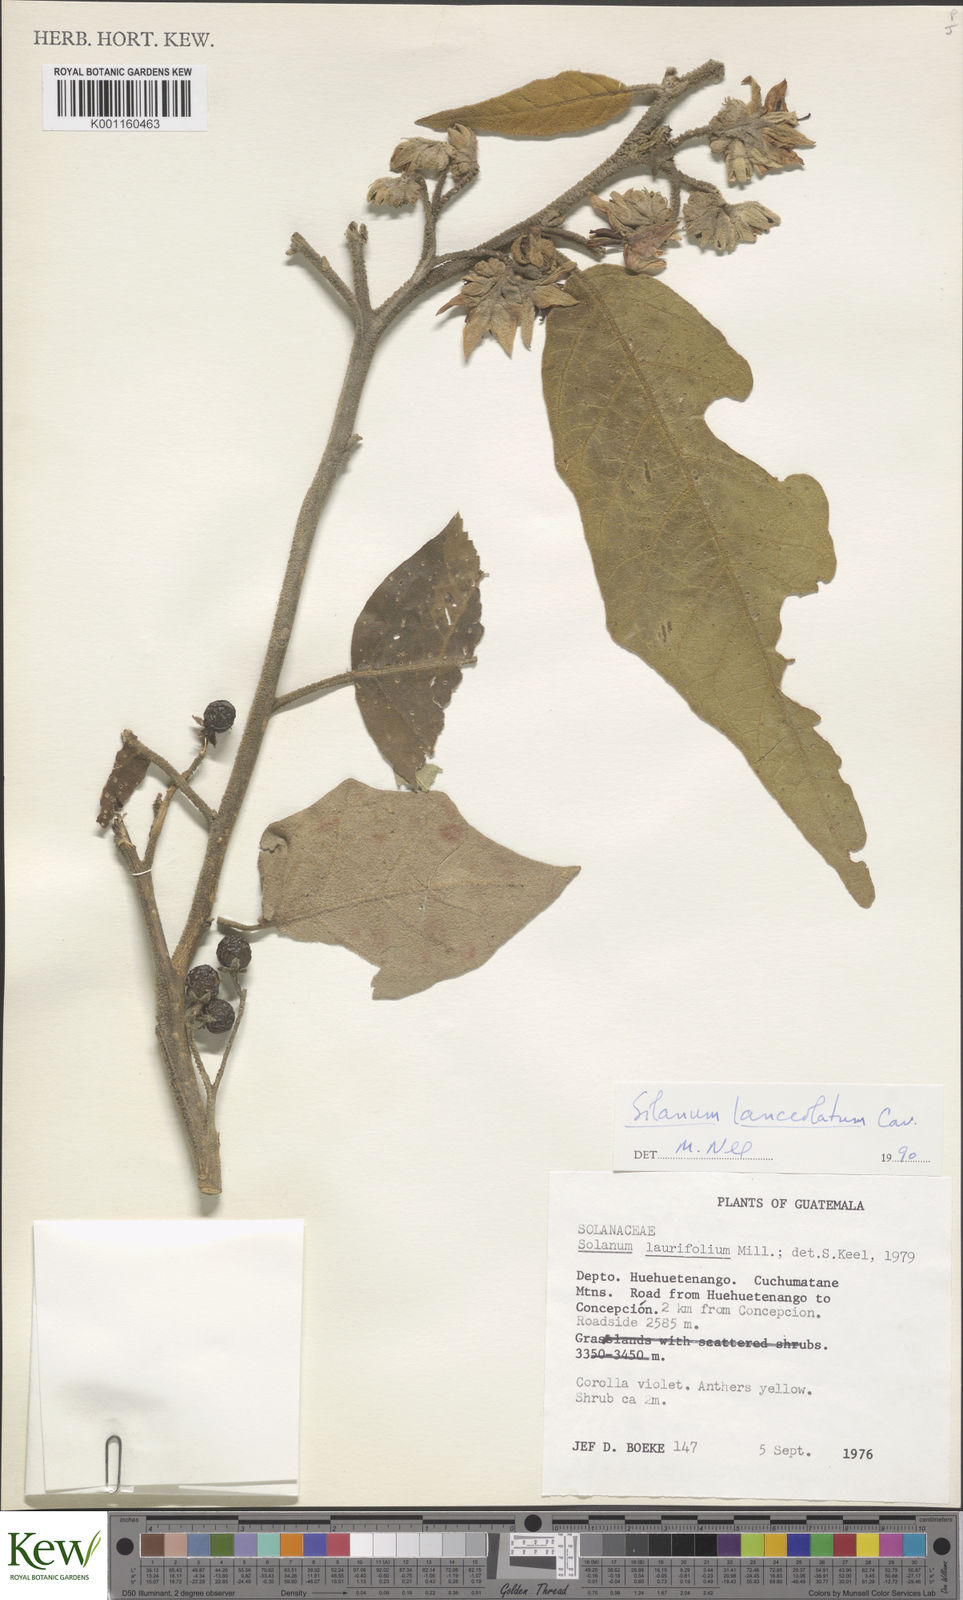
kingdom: Plantae
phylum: Tracheophyta
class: Magnoliopsida
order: Solanales
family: Solanaceae
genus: Solanum
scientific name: Solanum lanceolatum
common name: Orangeberry nightshade
